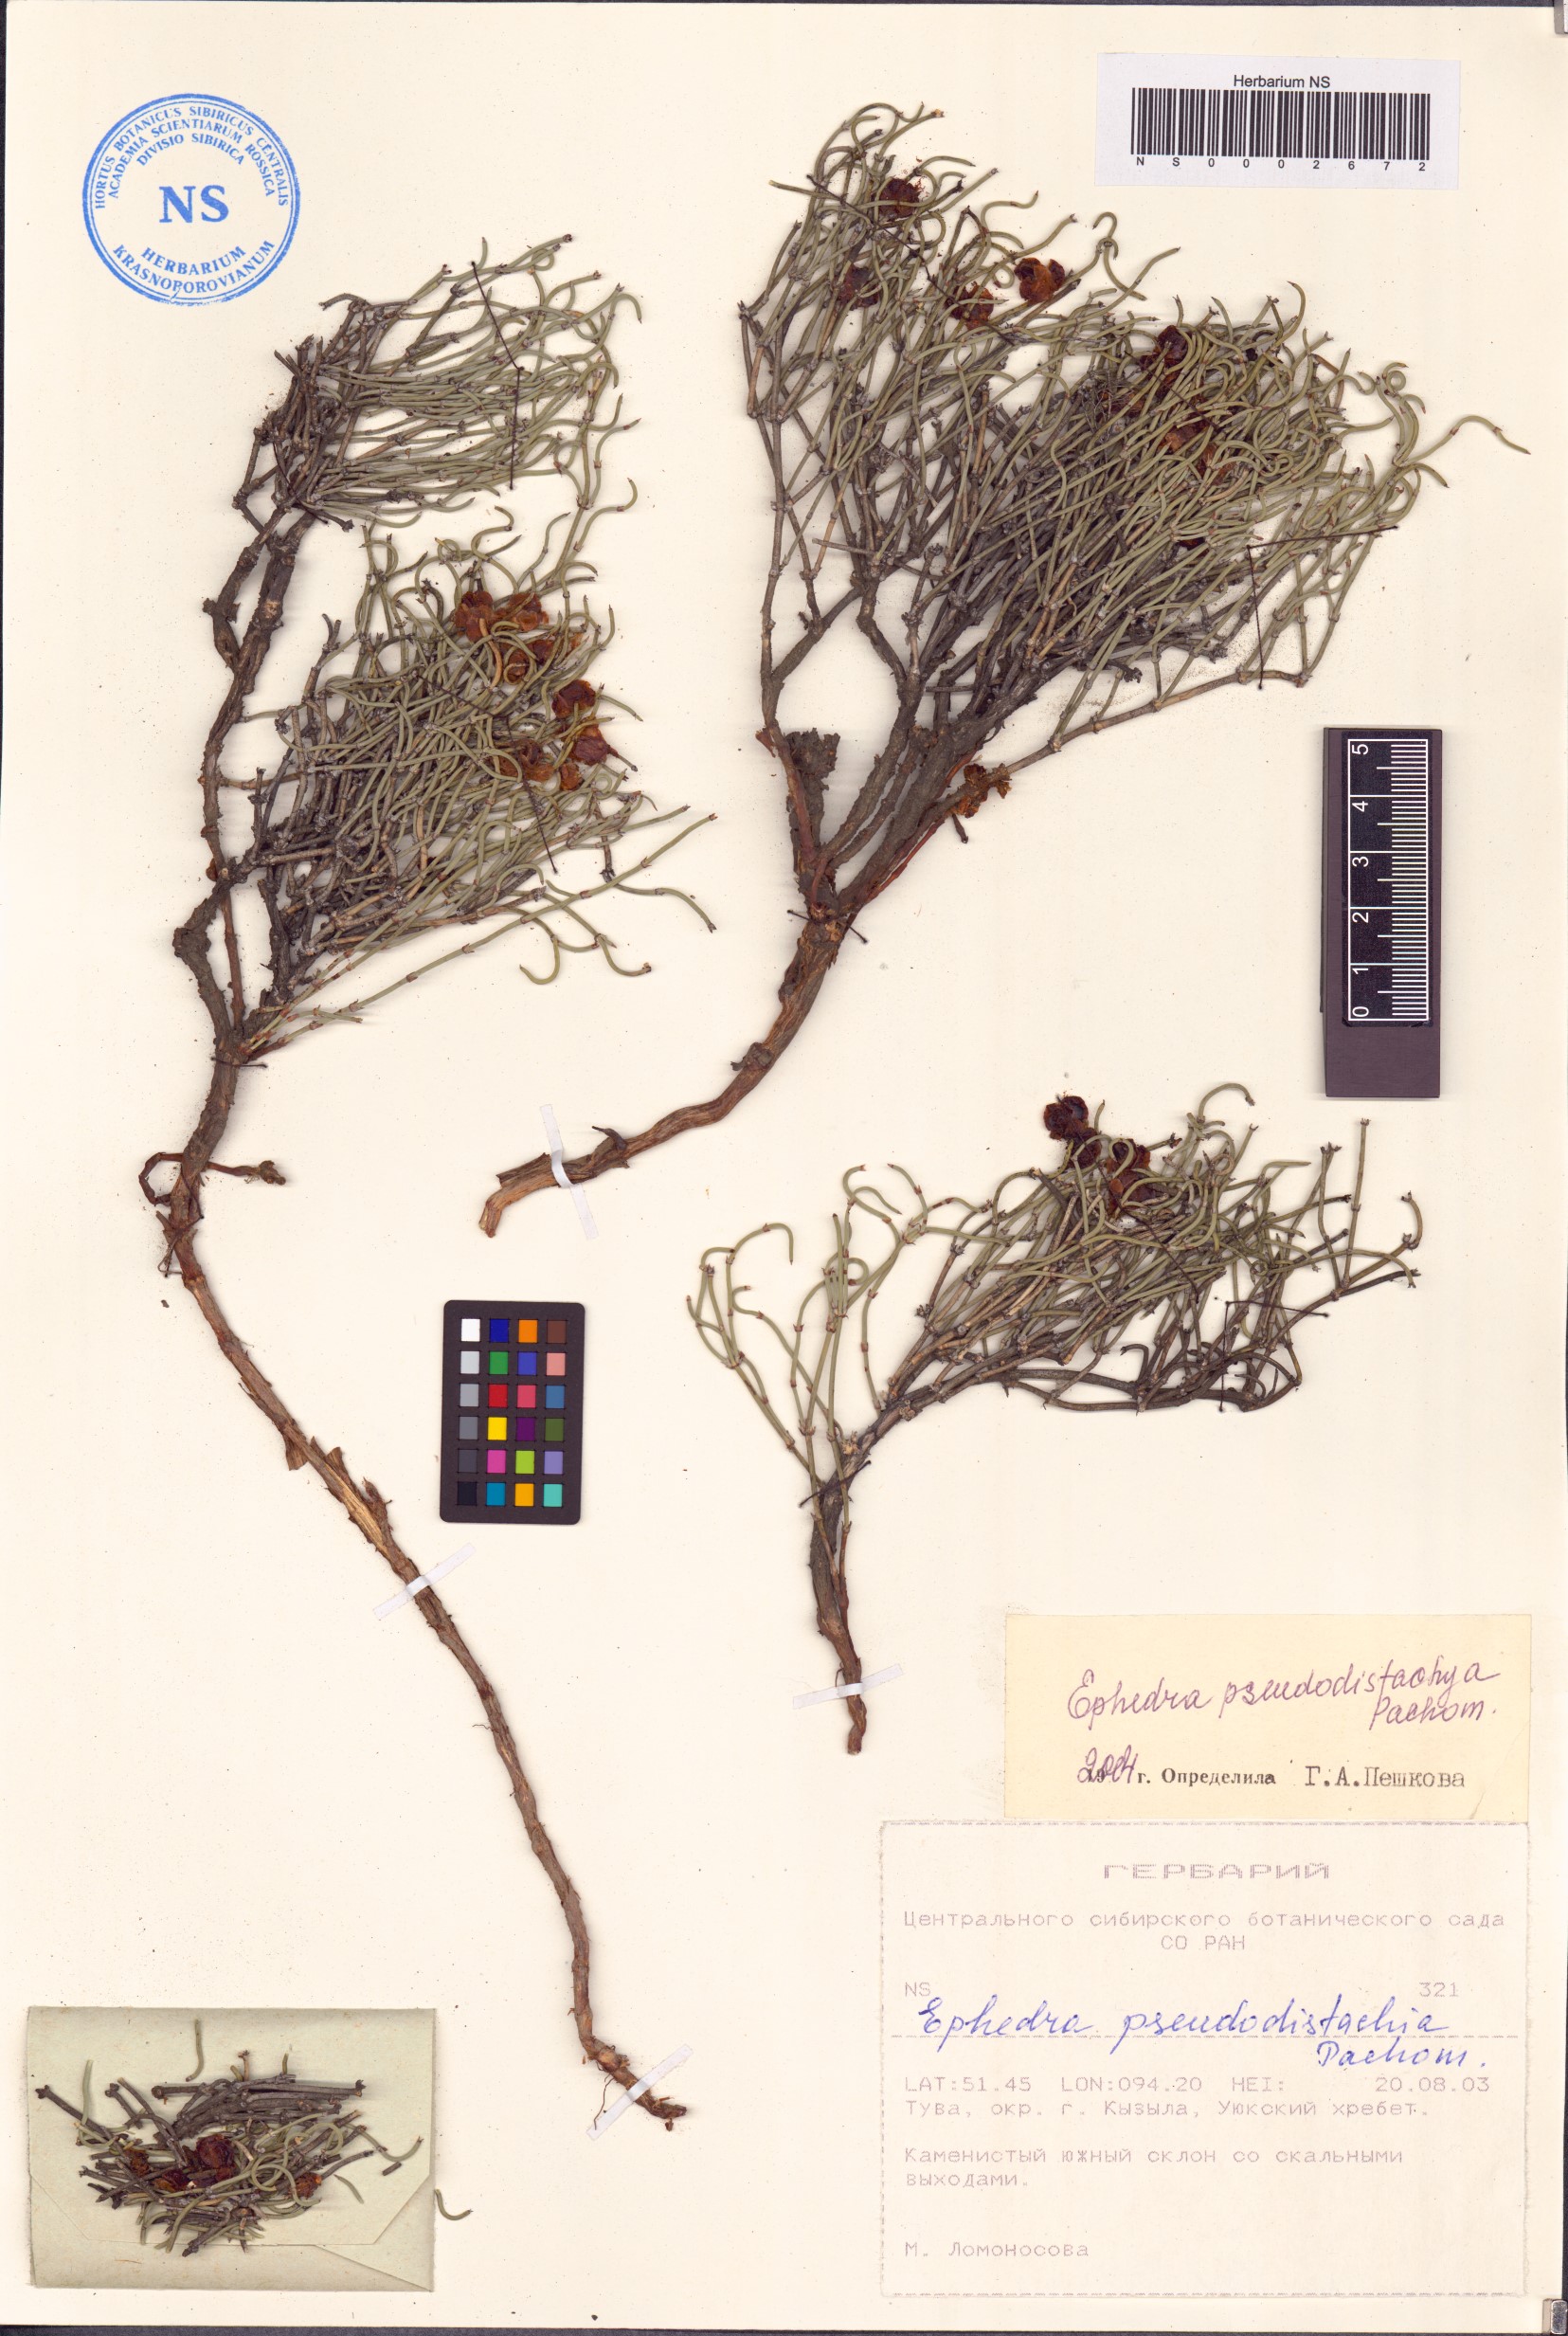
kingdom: Plantae
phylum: Tracheophyta
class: Gnetopsida
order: Ephedrales
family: Ephedraceae
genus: Ephedra
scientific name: Ephedra pseudodistachya
